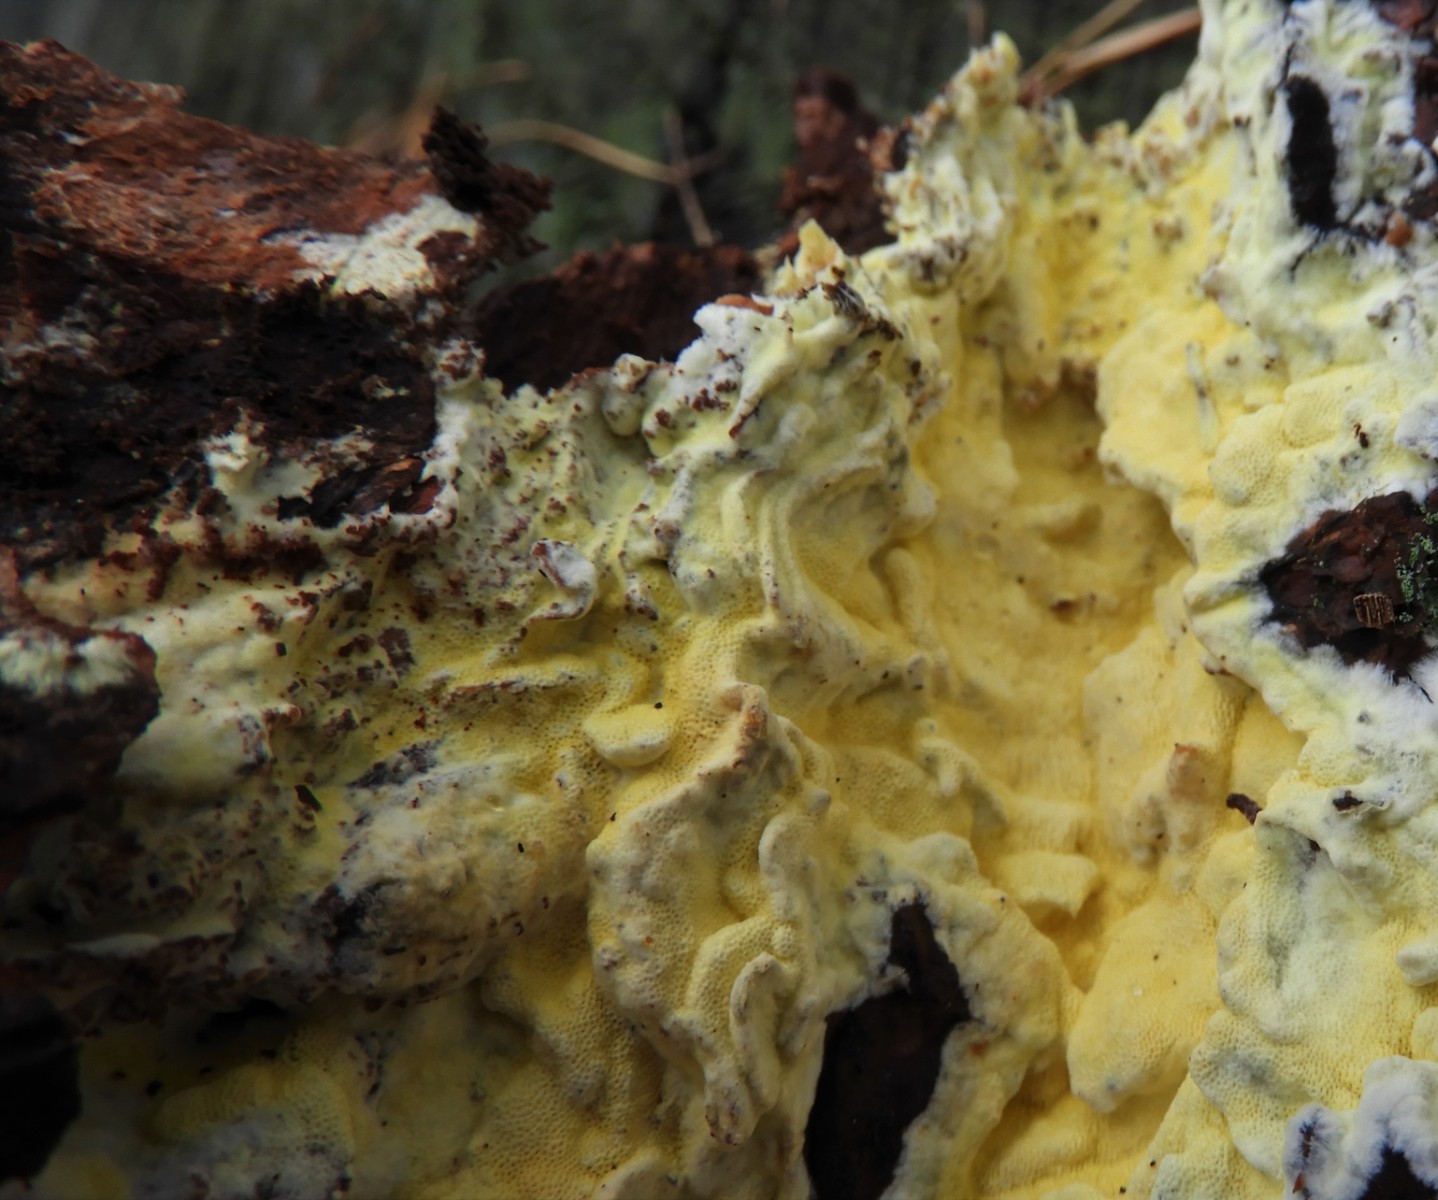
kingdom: Fungi
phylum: Basidiomycota
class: Agaricomycetes
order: Polyporales
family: Fomitopsidaceae
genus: Daedalea
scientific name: Daedalea xantha
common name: gul sejporesvamp
